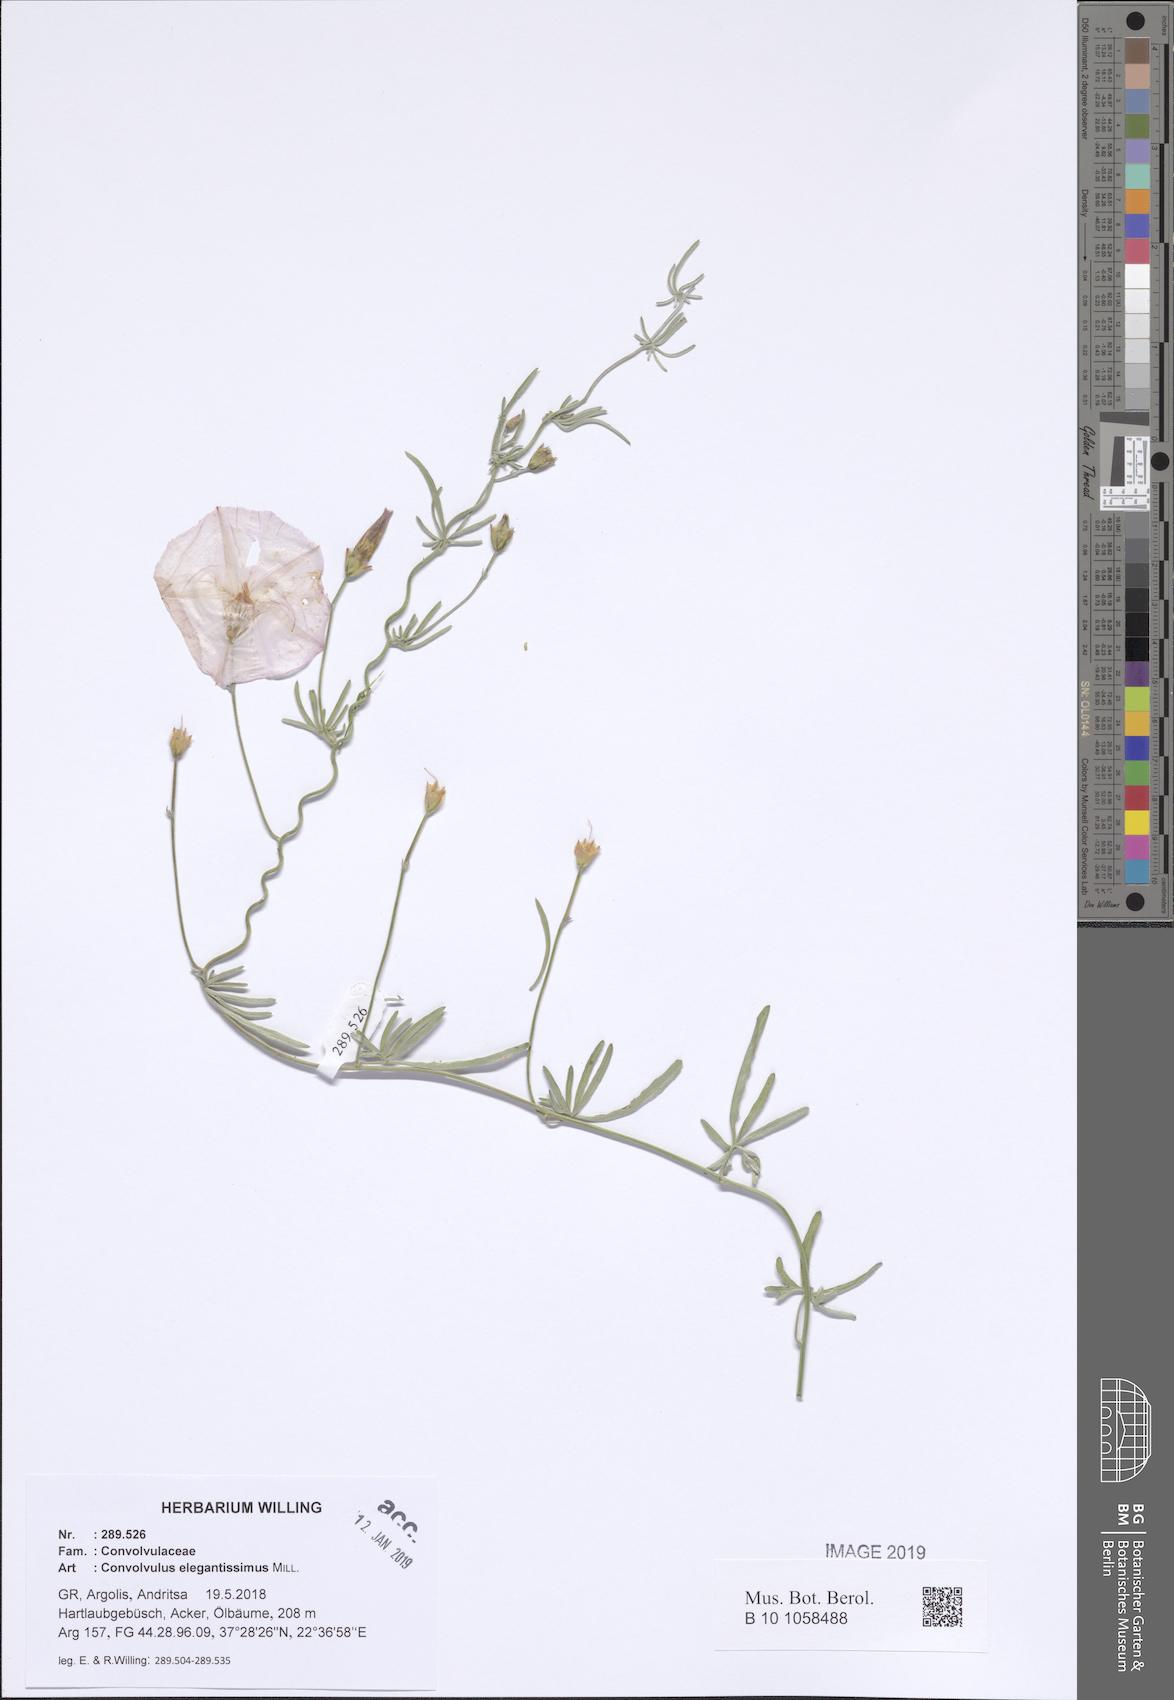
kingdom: Plantae
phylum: Tracheophyta
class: Magnoliopsida
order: Solanales
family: Convolvulaceae
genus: Convolvulus
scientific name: Convolvulus elegantissimus
